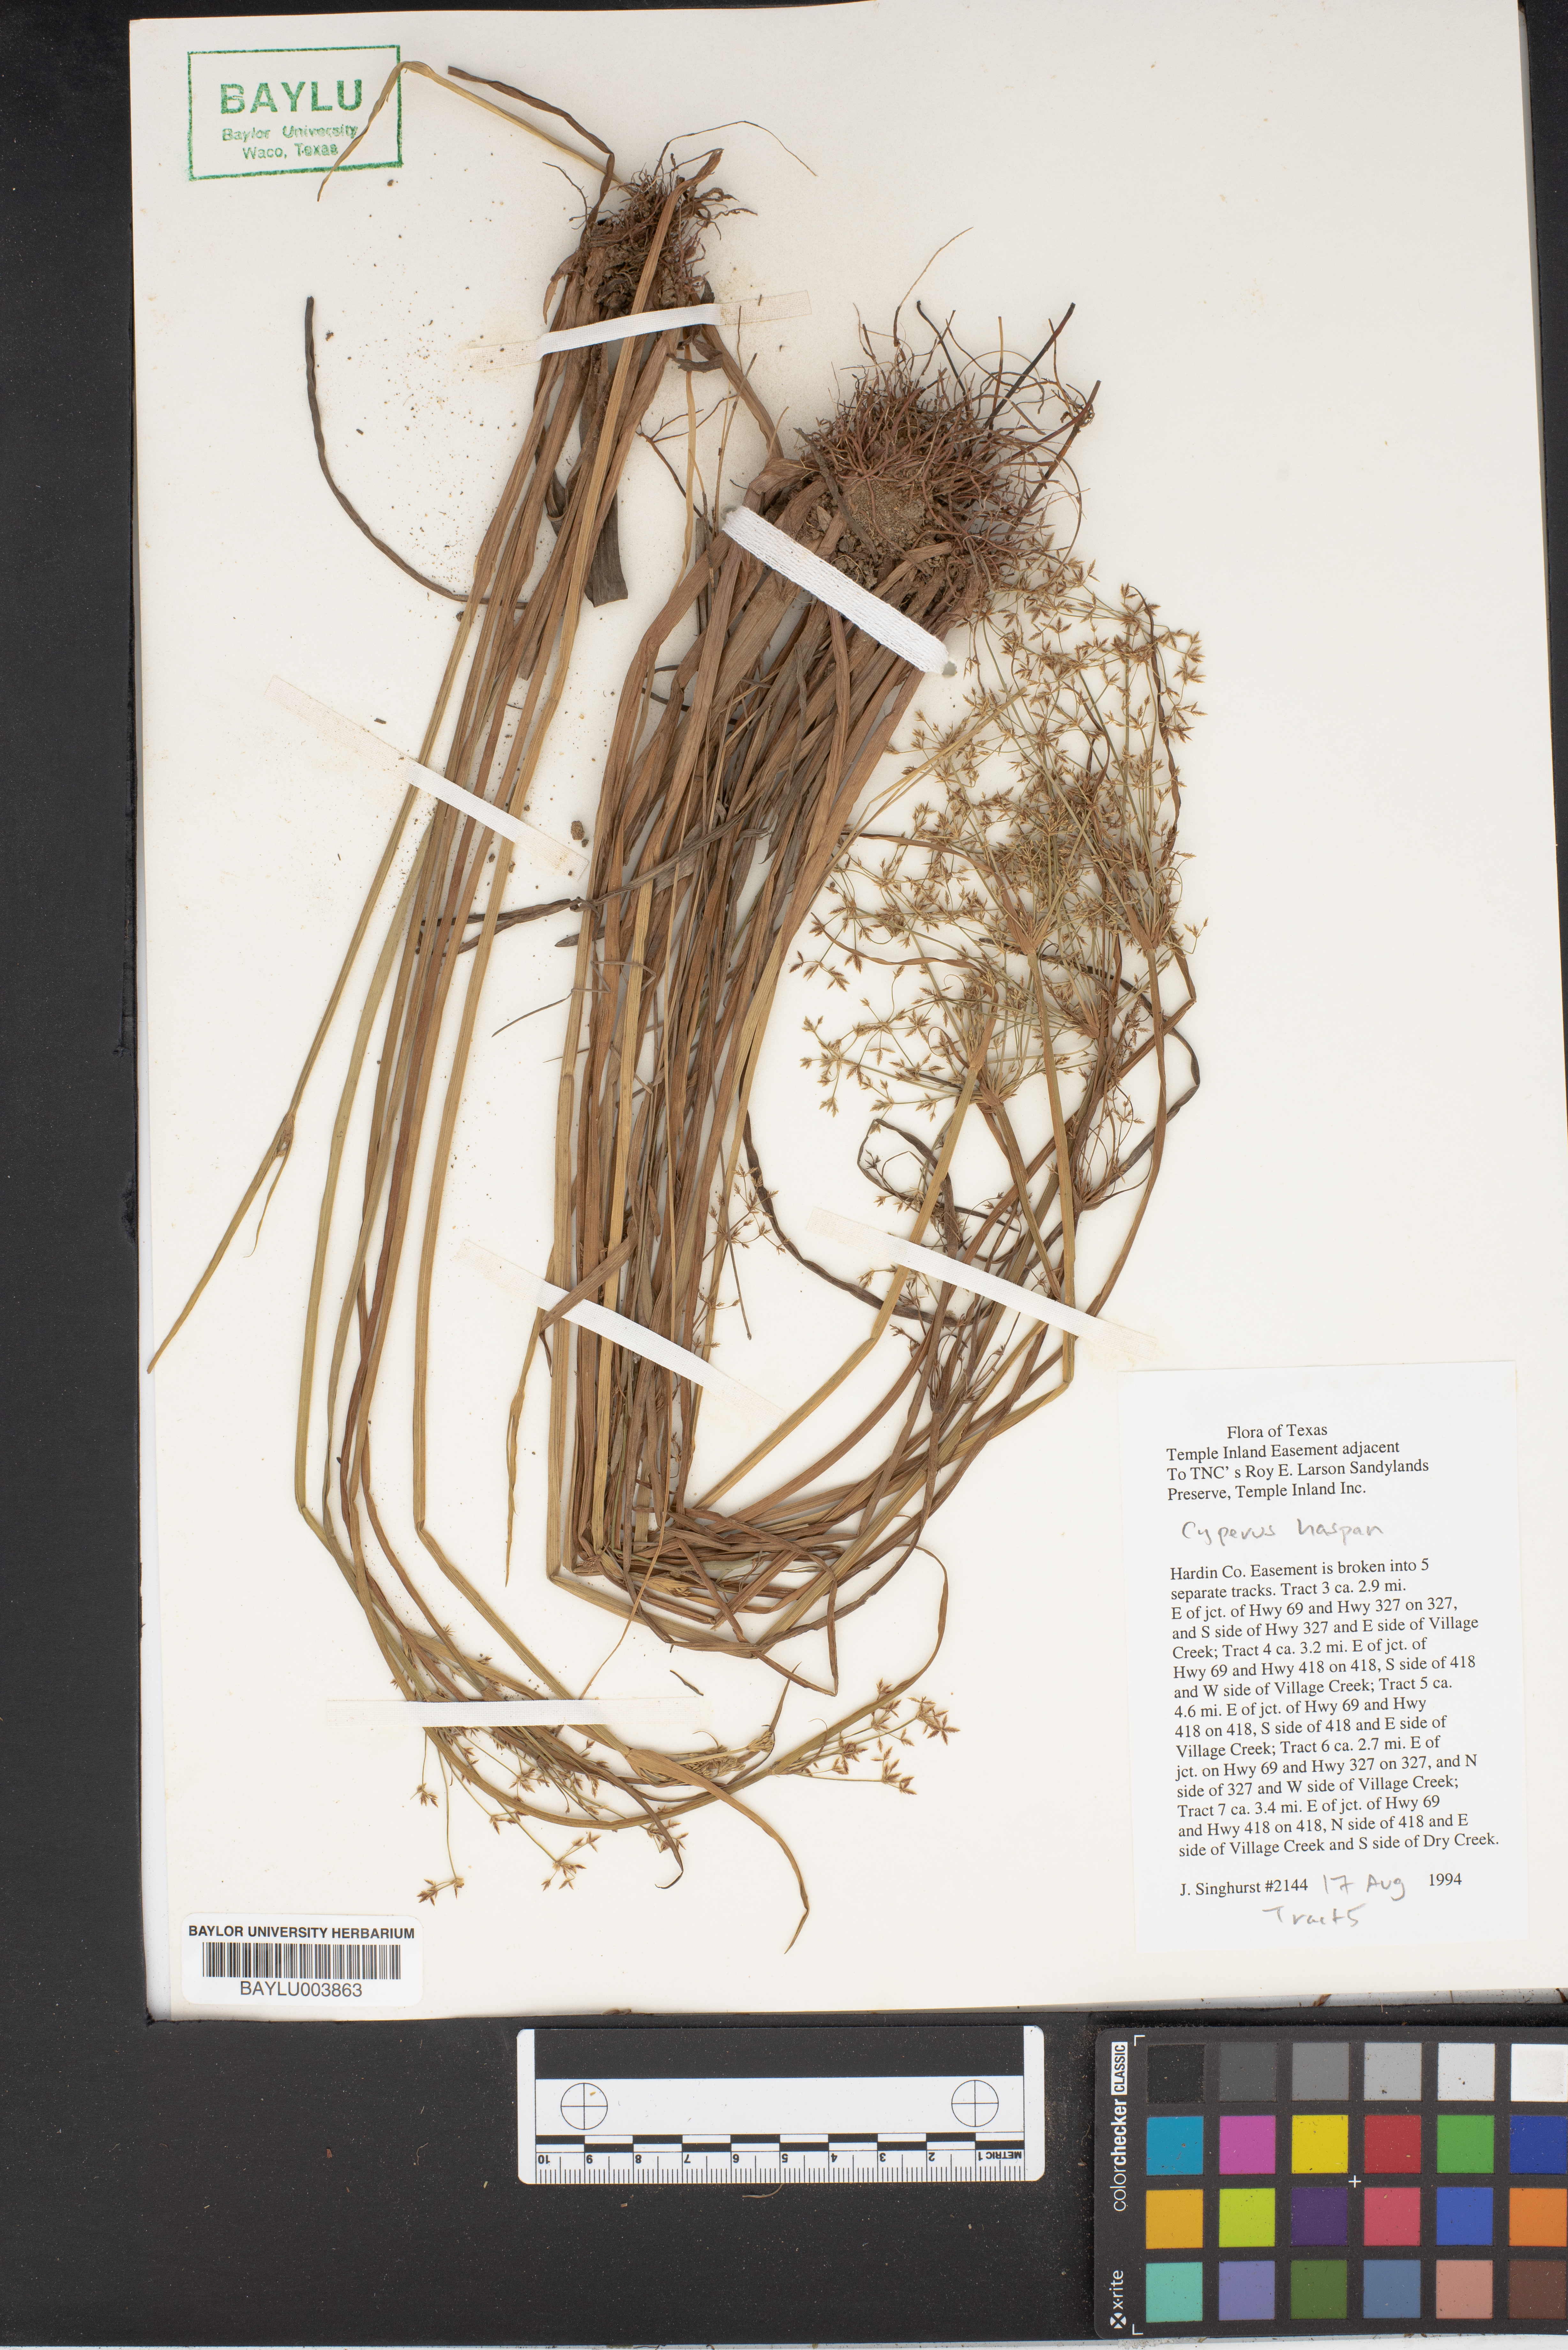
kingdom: Plantae
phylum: Tracheophyta
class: Liliopsida
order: Poales
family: Cyperaceae
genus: Cyperus
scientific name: Cyperus haspan
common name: Haspan flatsedge
